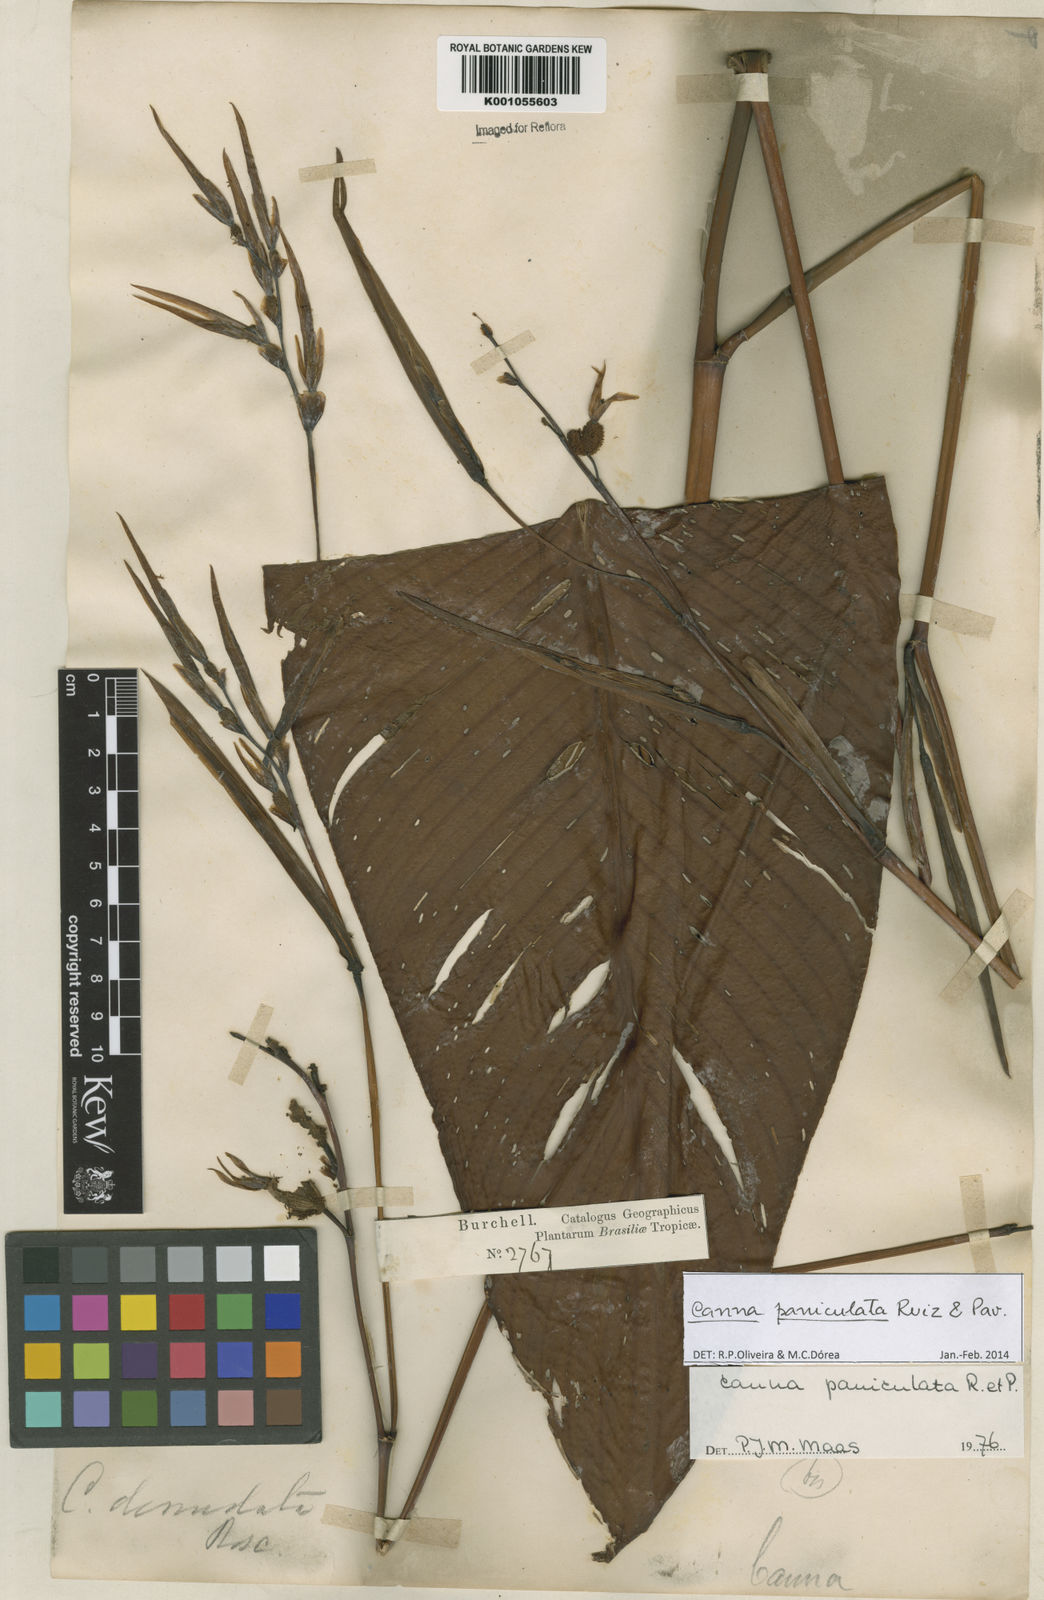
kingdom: Plantae
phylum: Tracheophyta
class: Liliopsida
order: Zingiberales
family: Cannaceae
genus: Canna
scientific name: Canna paniculata
